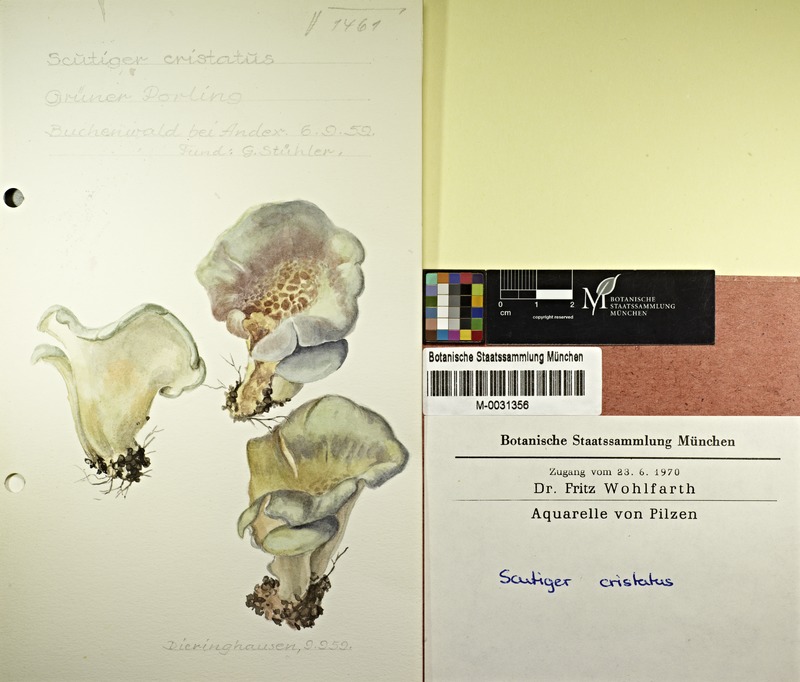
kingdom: Fungi
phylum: Basidiomycota
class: Agaricomycetes
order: Russulales
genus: Laeticutis
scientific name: Laeticutis cristata
